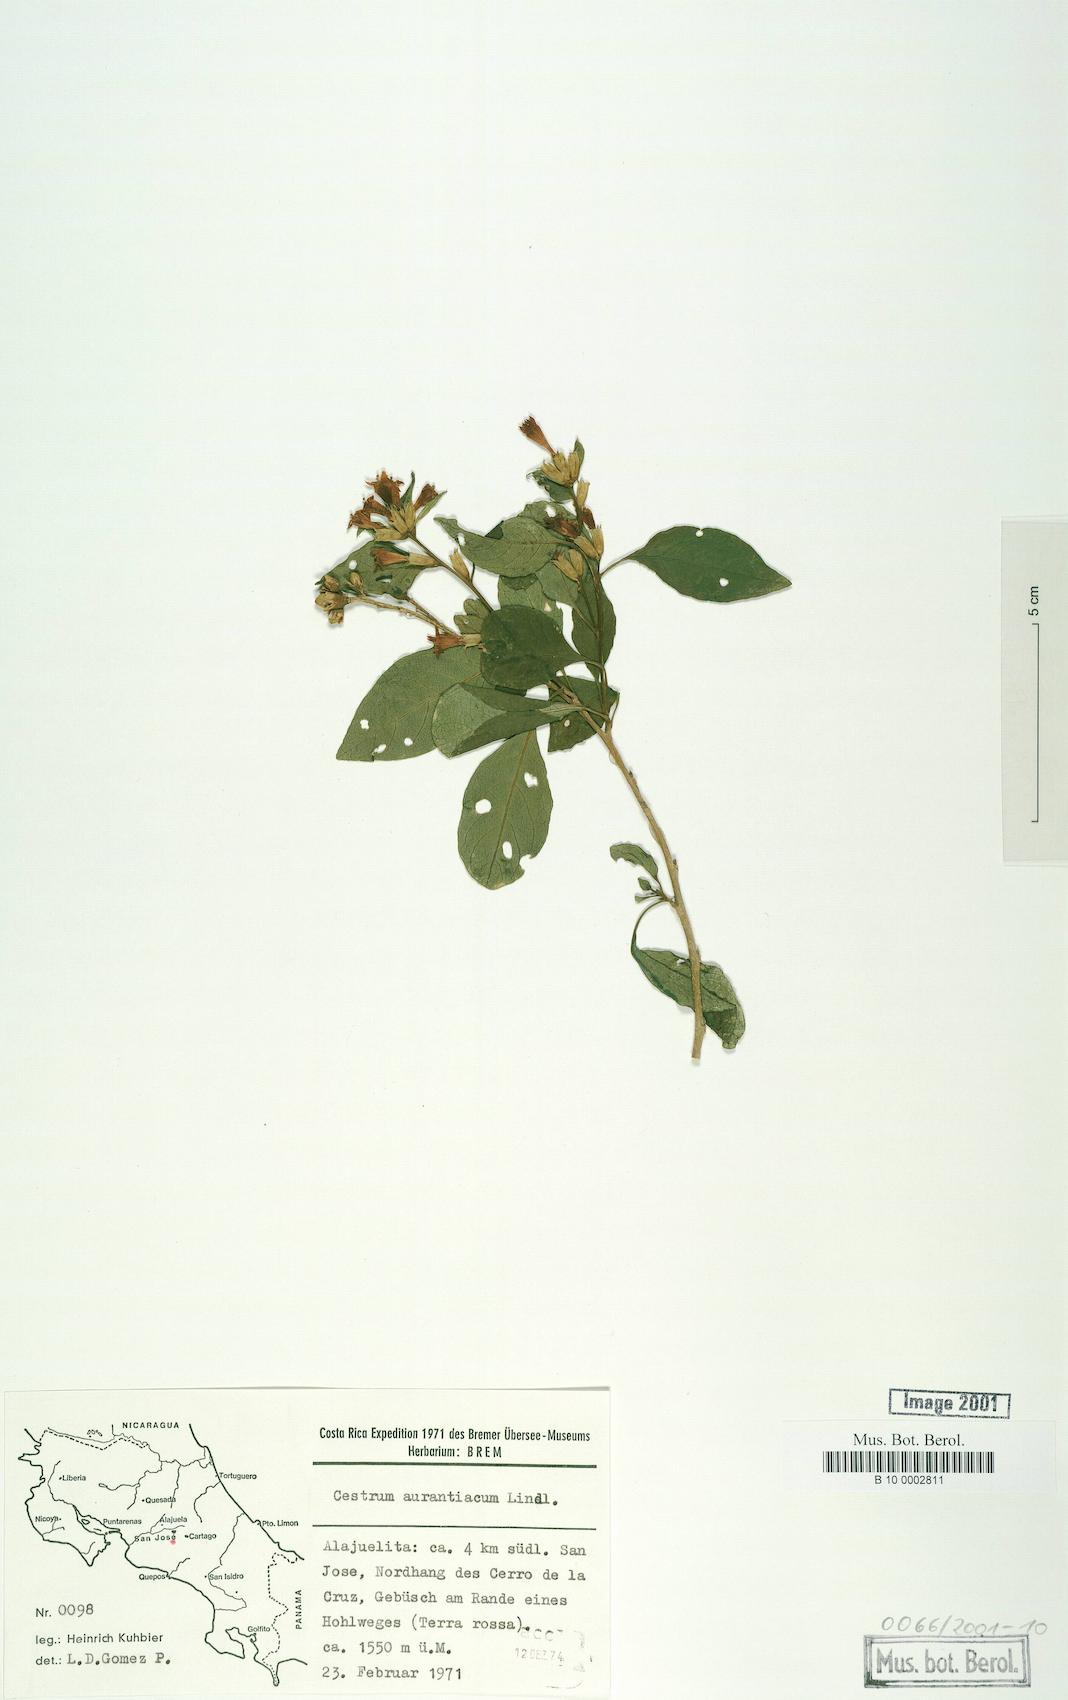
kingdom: Plantae
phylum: Tracheophyta
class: Magnoliopsida
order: Solanales
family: Solanaceae
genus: Cestrum
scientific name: Cestrum aurantiacum
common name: Orange cestrum
